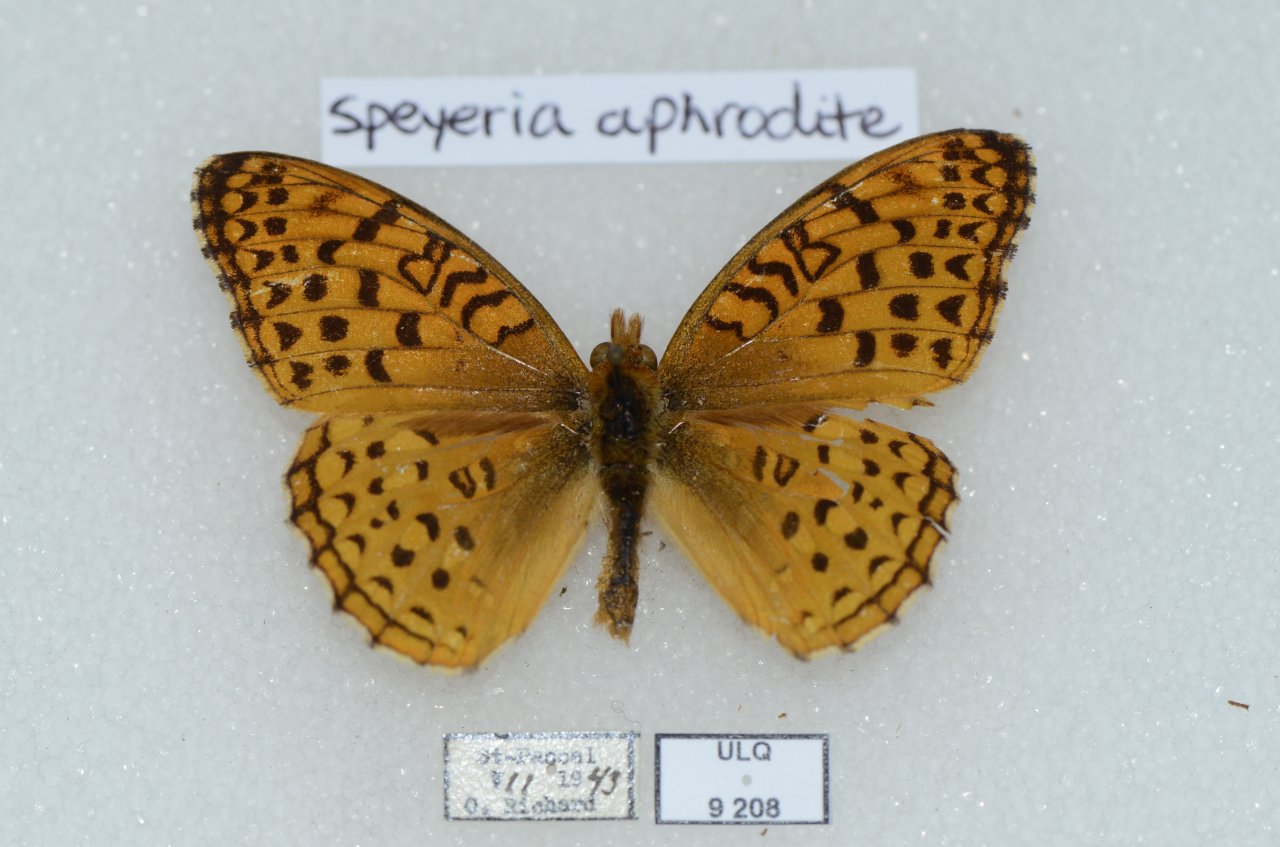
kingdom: Animalia
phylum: Arthropoda
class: Insecta
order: Lepidoptera
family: Nymphalidae
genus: Speyeria
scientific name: Speyeria aphrodite
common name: Aphrodite Fritillary
